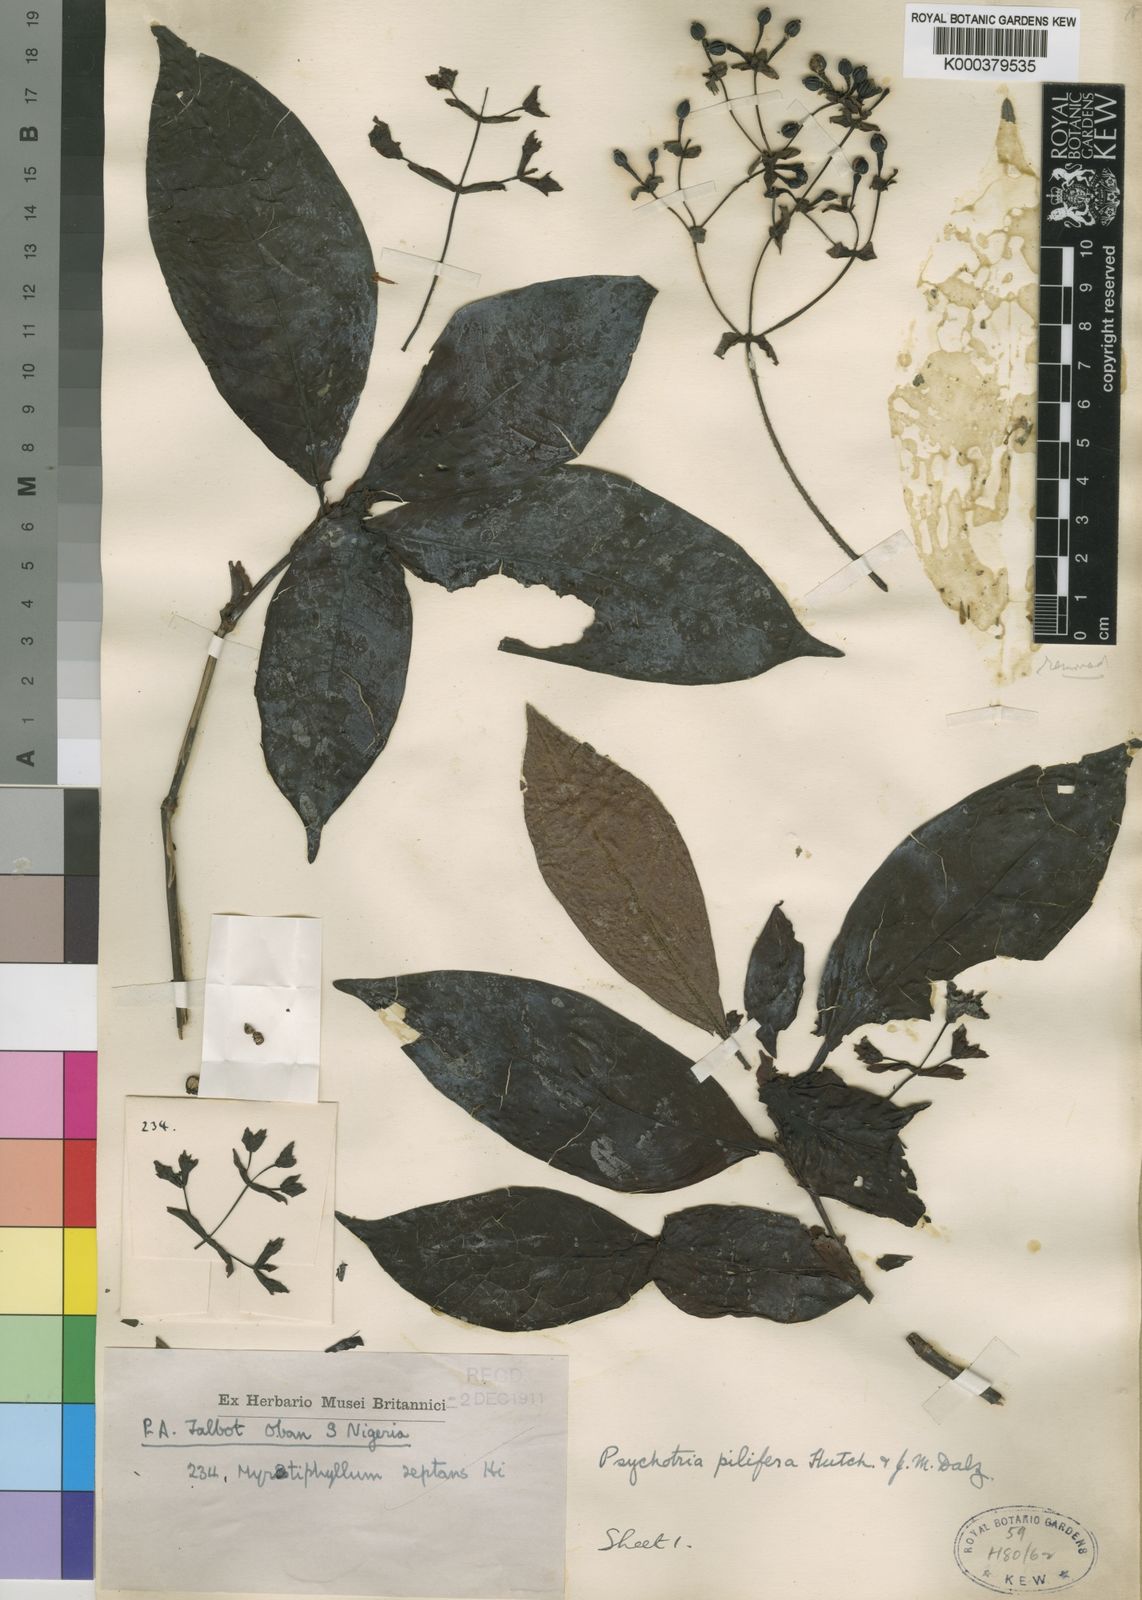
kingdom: Plantae
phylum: Tracheophyta
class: Magnoliopsida
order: Gentianales
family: Rubiaceae
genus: Psychotria
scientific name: Psychotria podocarpa
